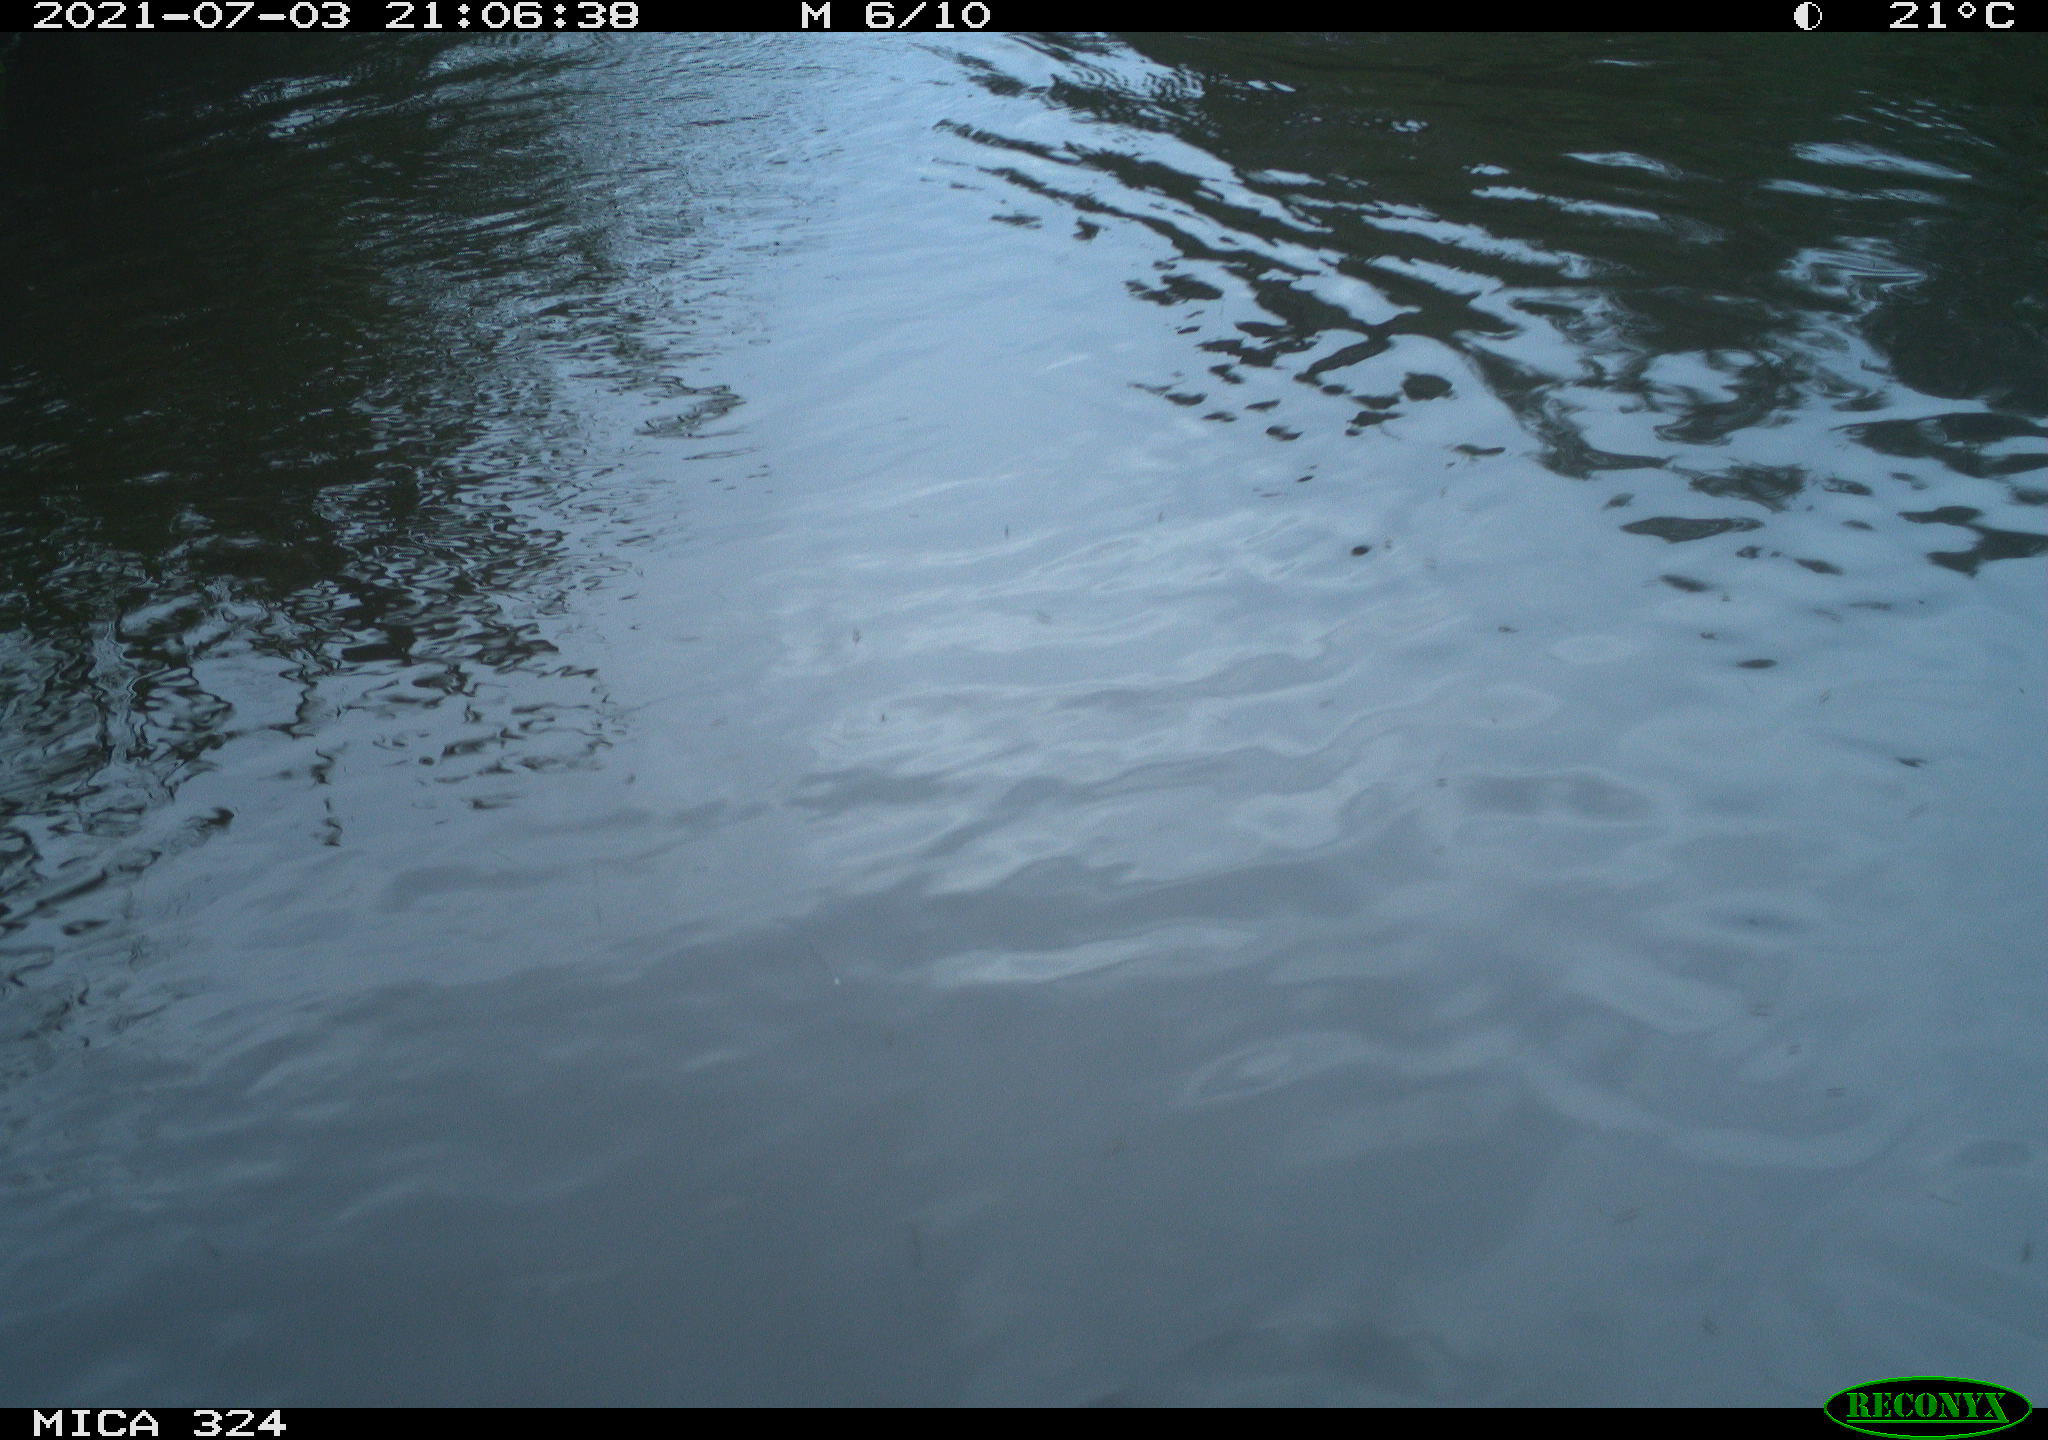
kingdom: Animalia
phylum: Chordata
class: Aves
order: Gruiformes
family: Rallidae
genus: Gallinula
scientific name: Gallinula chloropus
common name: Common moorhen
